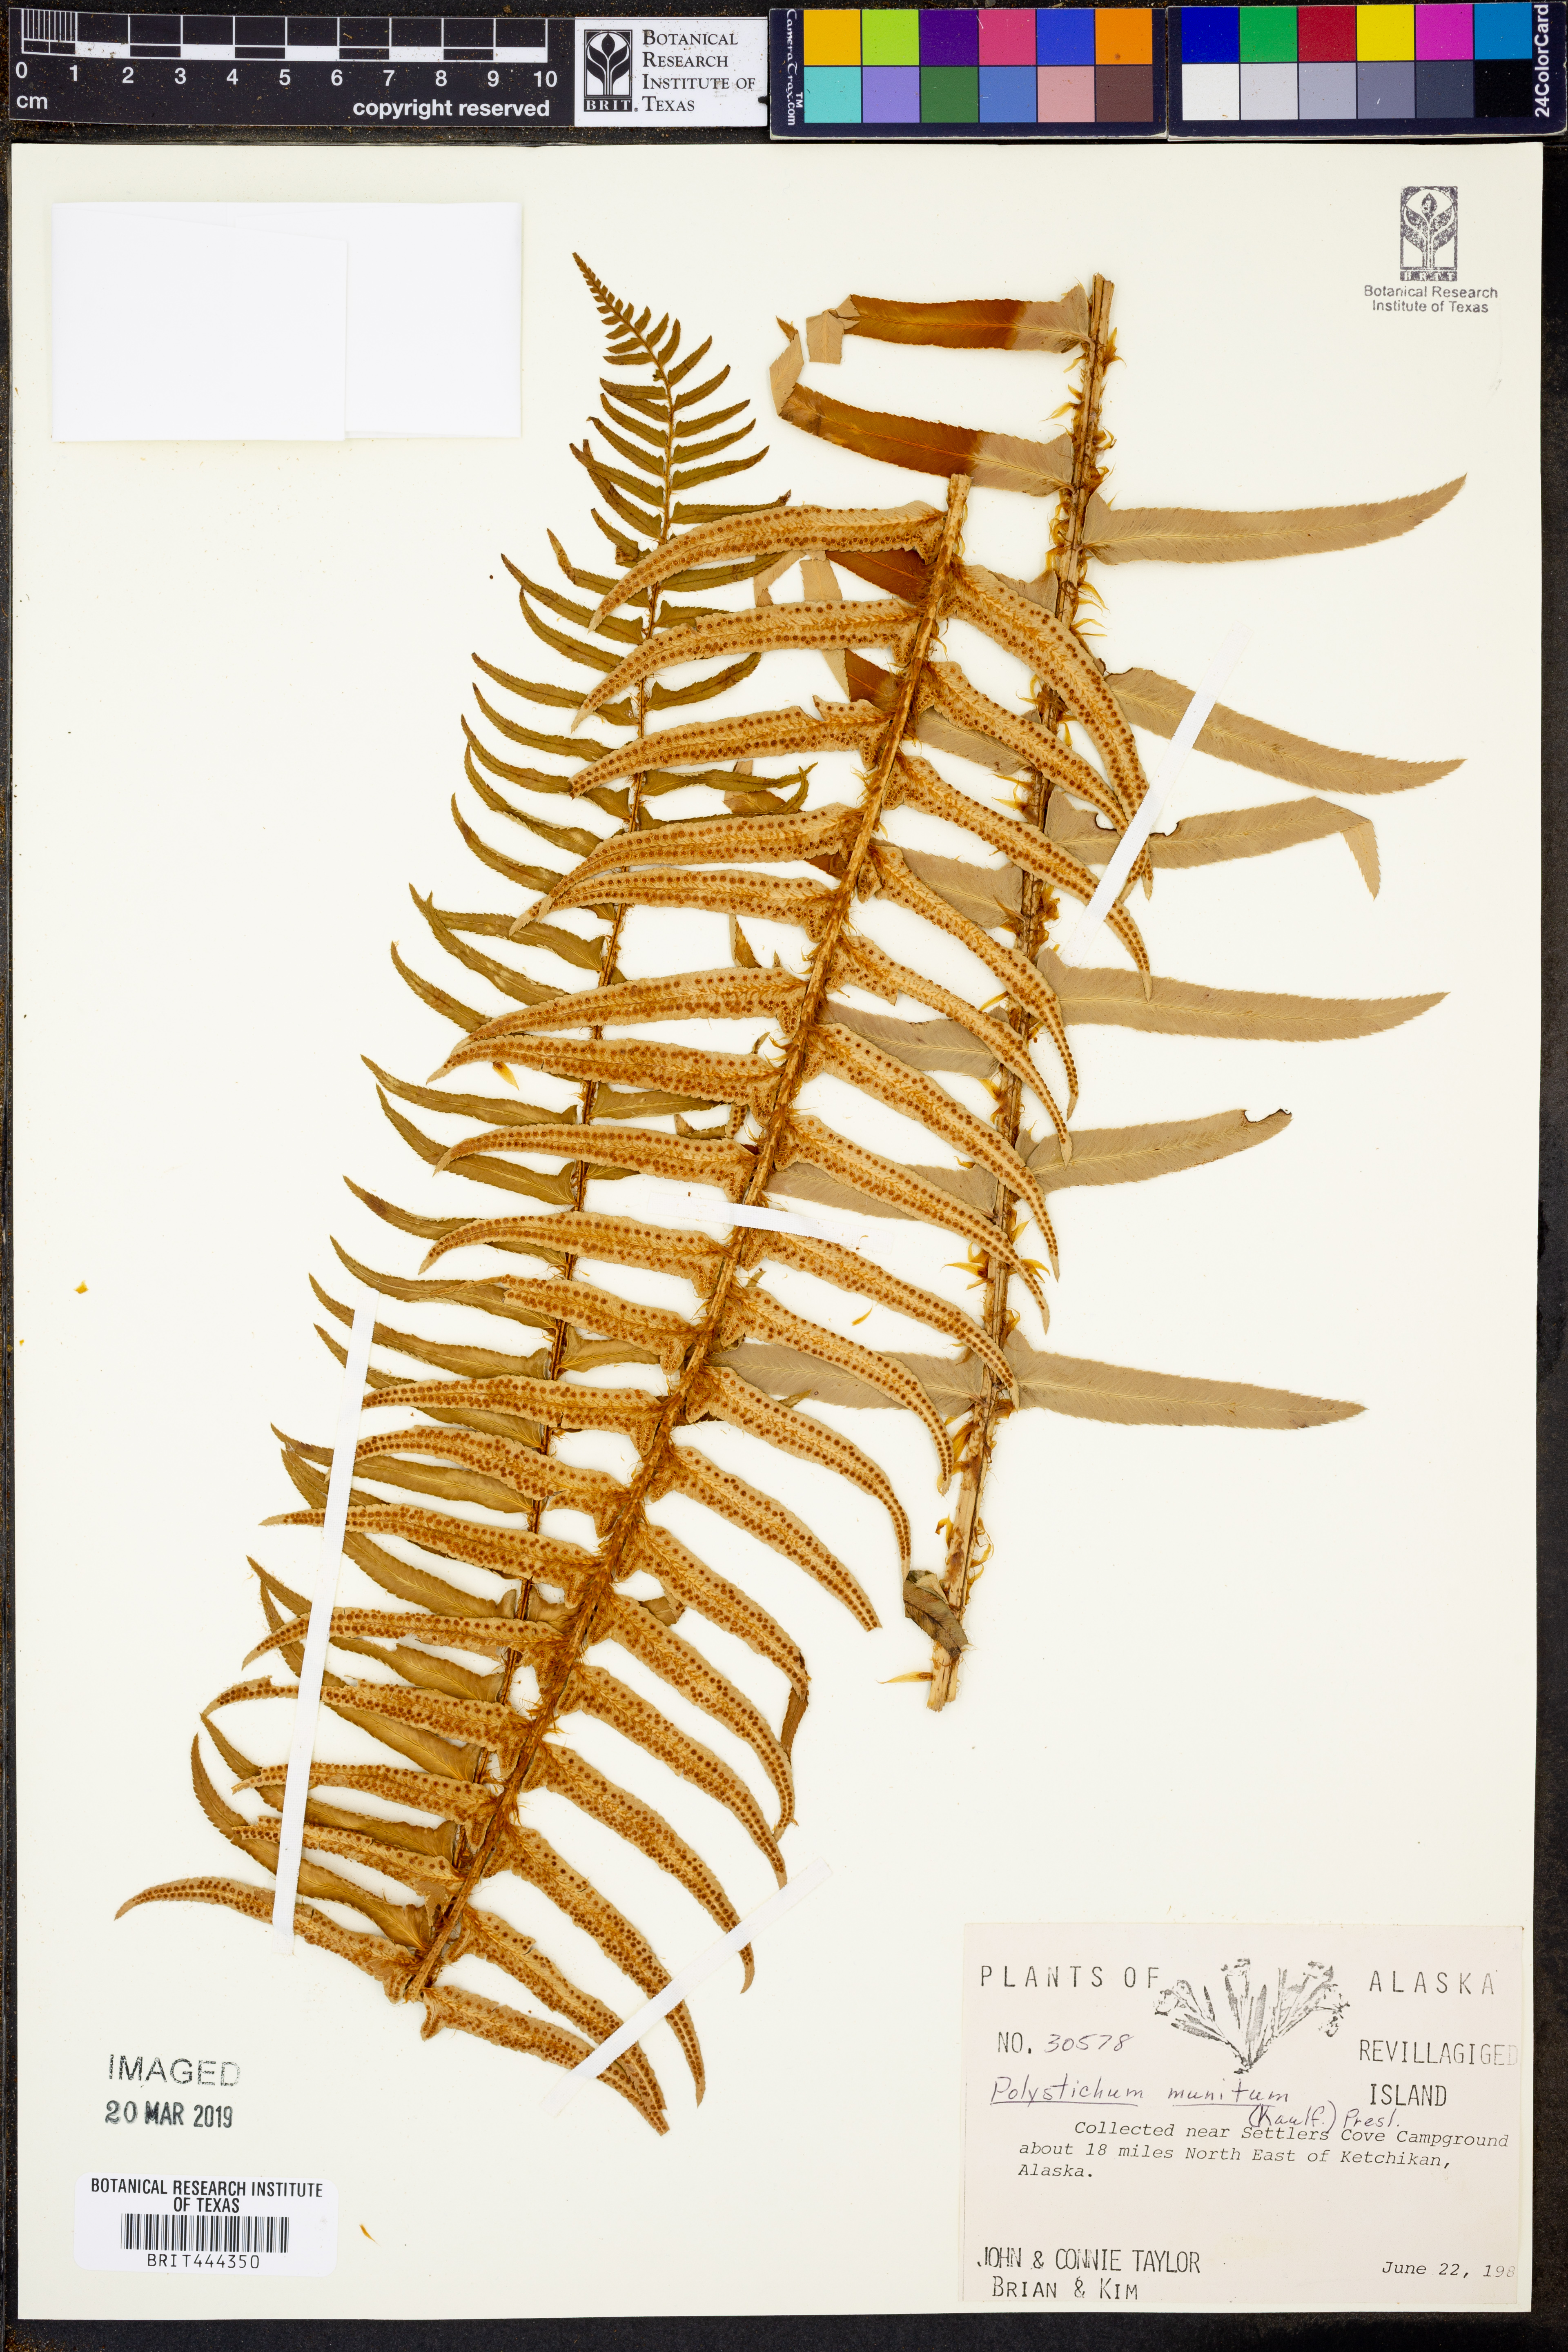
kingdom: Plantae
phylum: Tracheophyta
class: Polypodiopsida
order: Polypodiales
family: Dryopteridaceae
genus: Polystichum
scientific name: Polystichum munitum
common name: Western sword-fern
